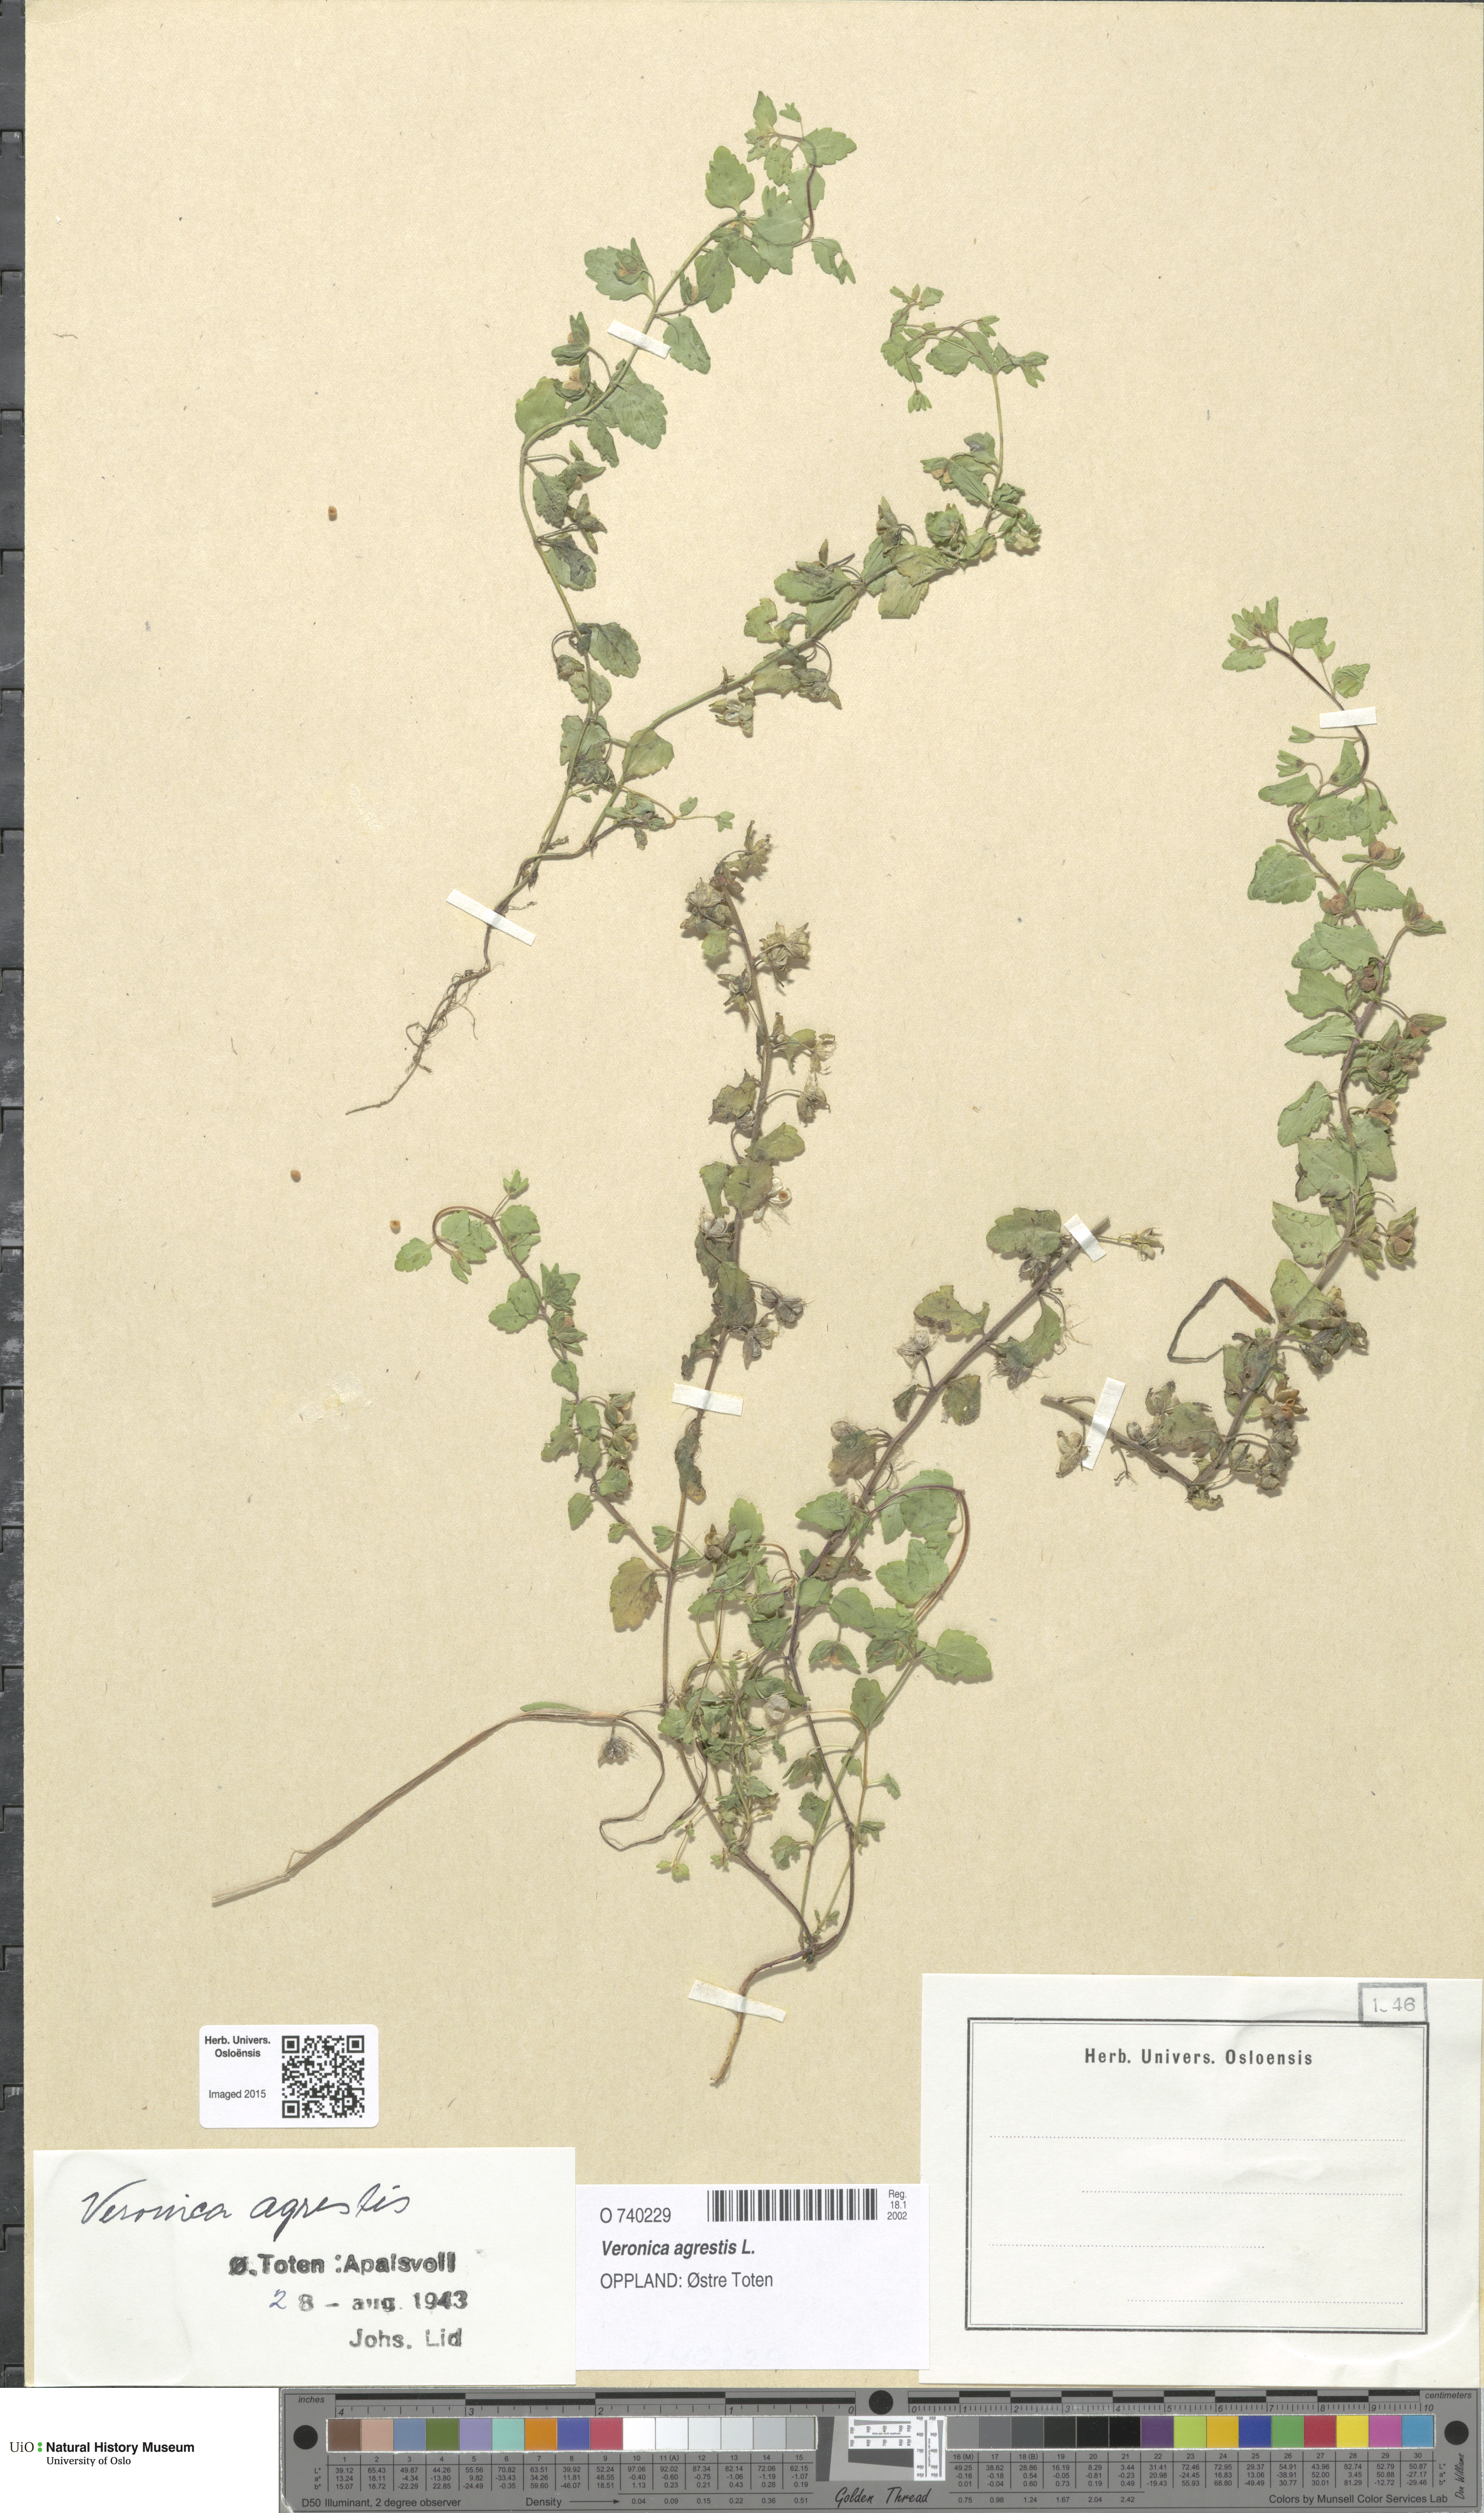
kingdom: Plantae
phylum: Tracheophyta
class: Magnoliopsida
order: Lamiales
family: Plantaginaceae
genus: Veronica
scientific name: Veronica agrestis
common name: Green field-speedwell
